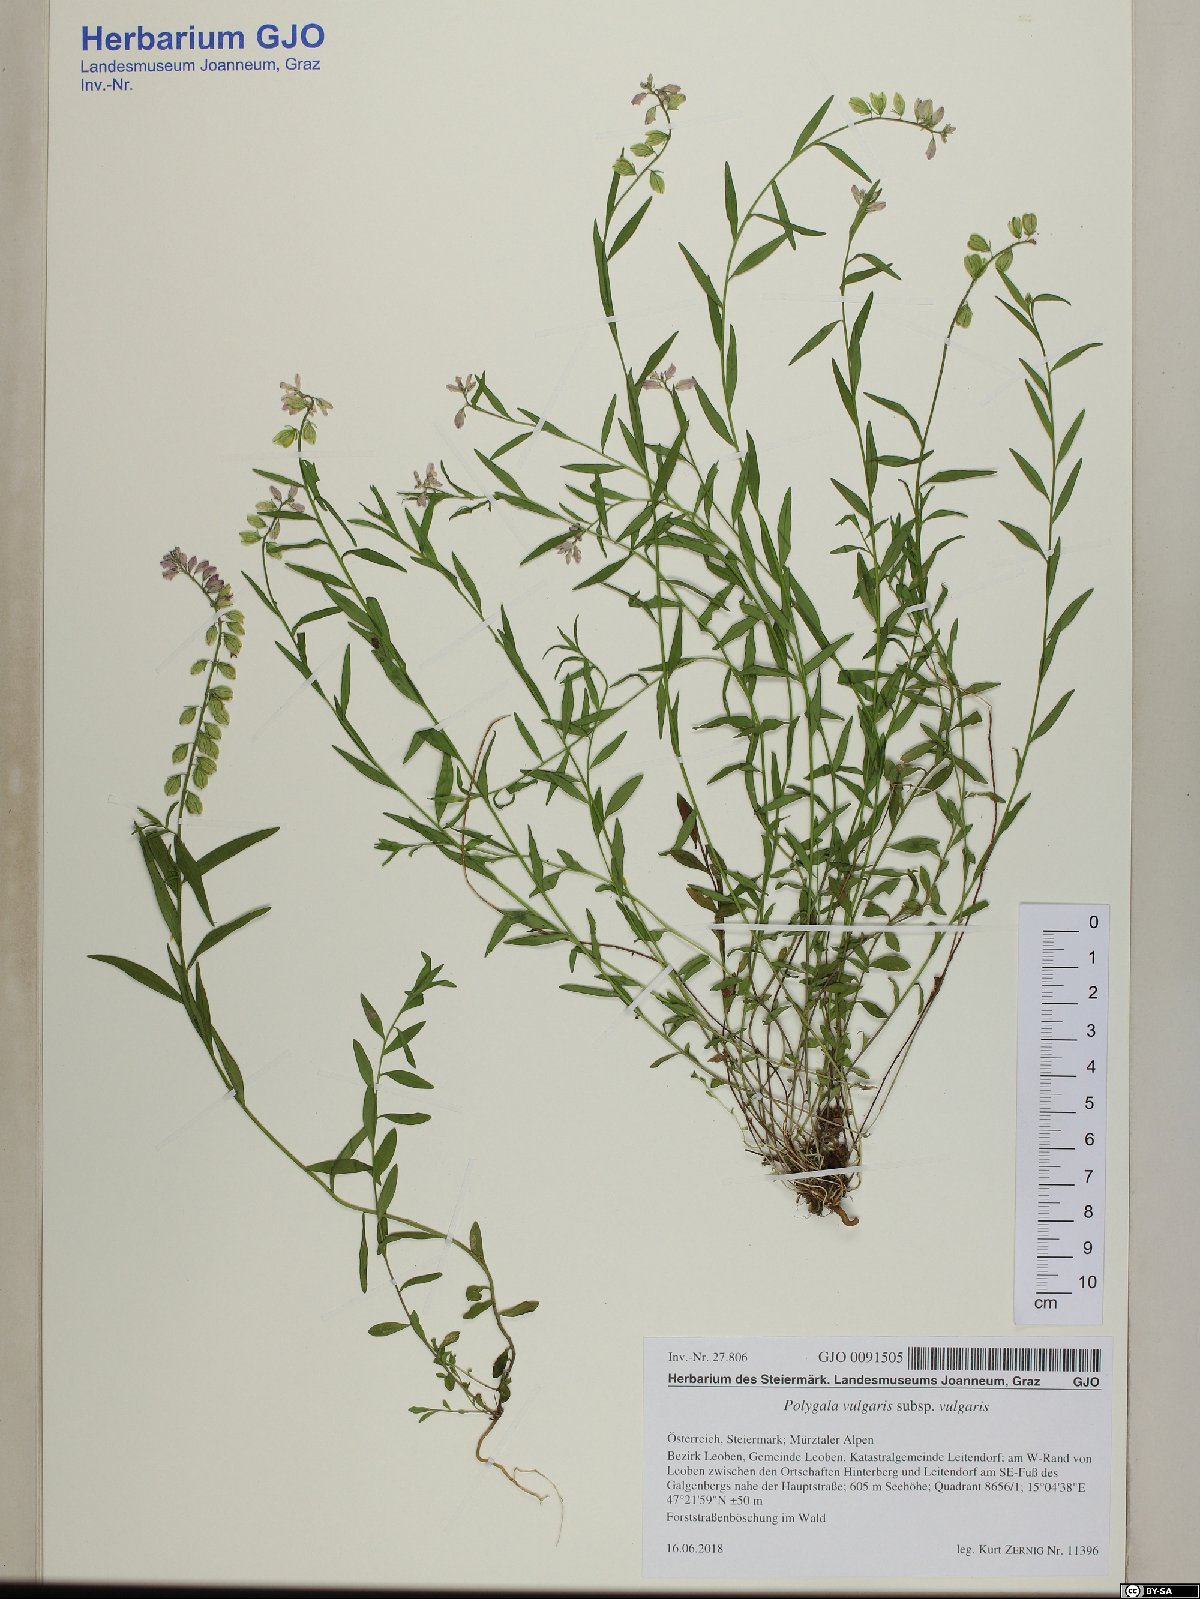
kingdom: Plantae
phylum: Tracheophyta
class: Magnoliopsida
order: Fabales
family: Polygalaceae
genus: Polygala
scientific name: Polygala vulgaris
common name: Common milkwort
